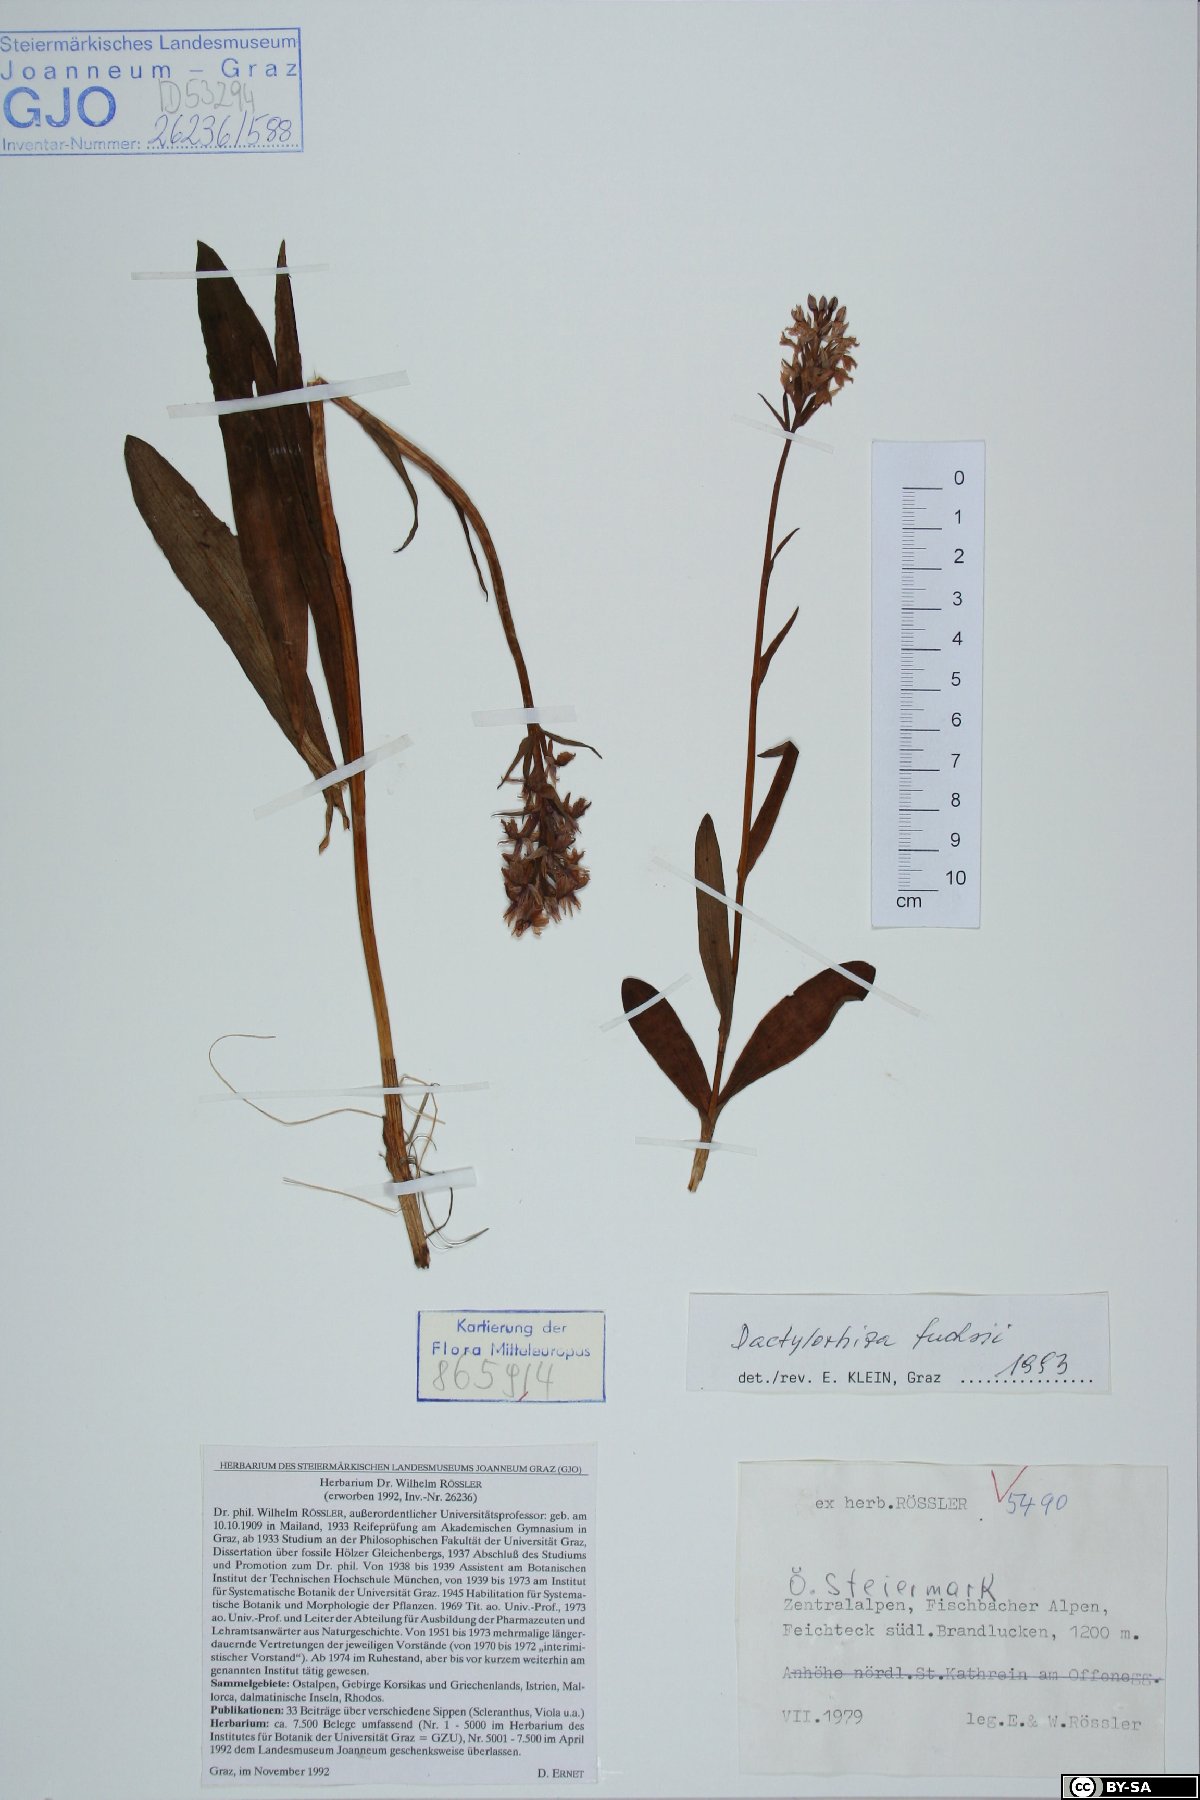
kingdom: Plantae
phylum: Tracheophyta
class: Liliopsida
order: Asparagales
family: Orchidaceae
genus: Dactylorhiza
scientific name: Dactylorhiza maculata
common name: Heath spotted-orchid
